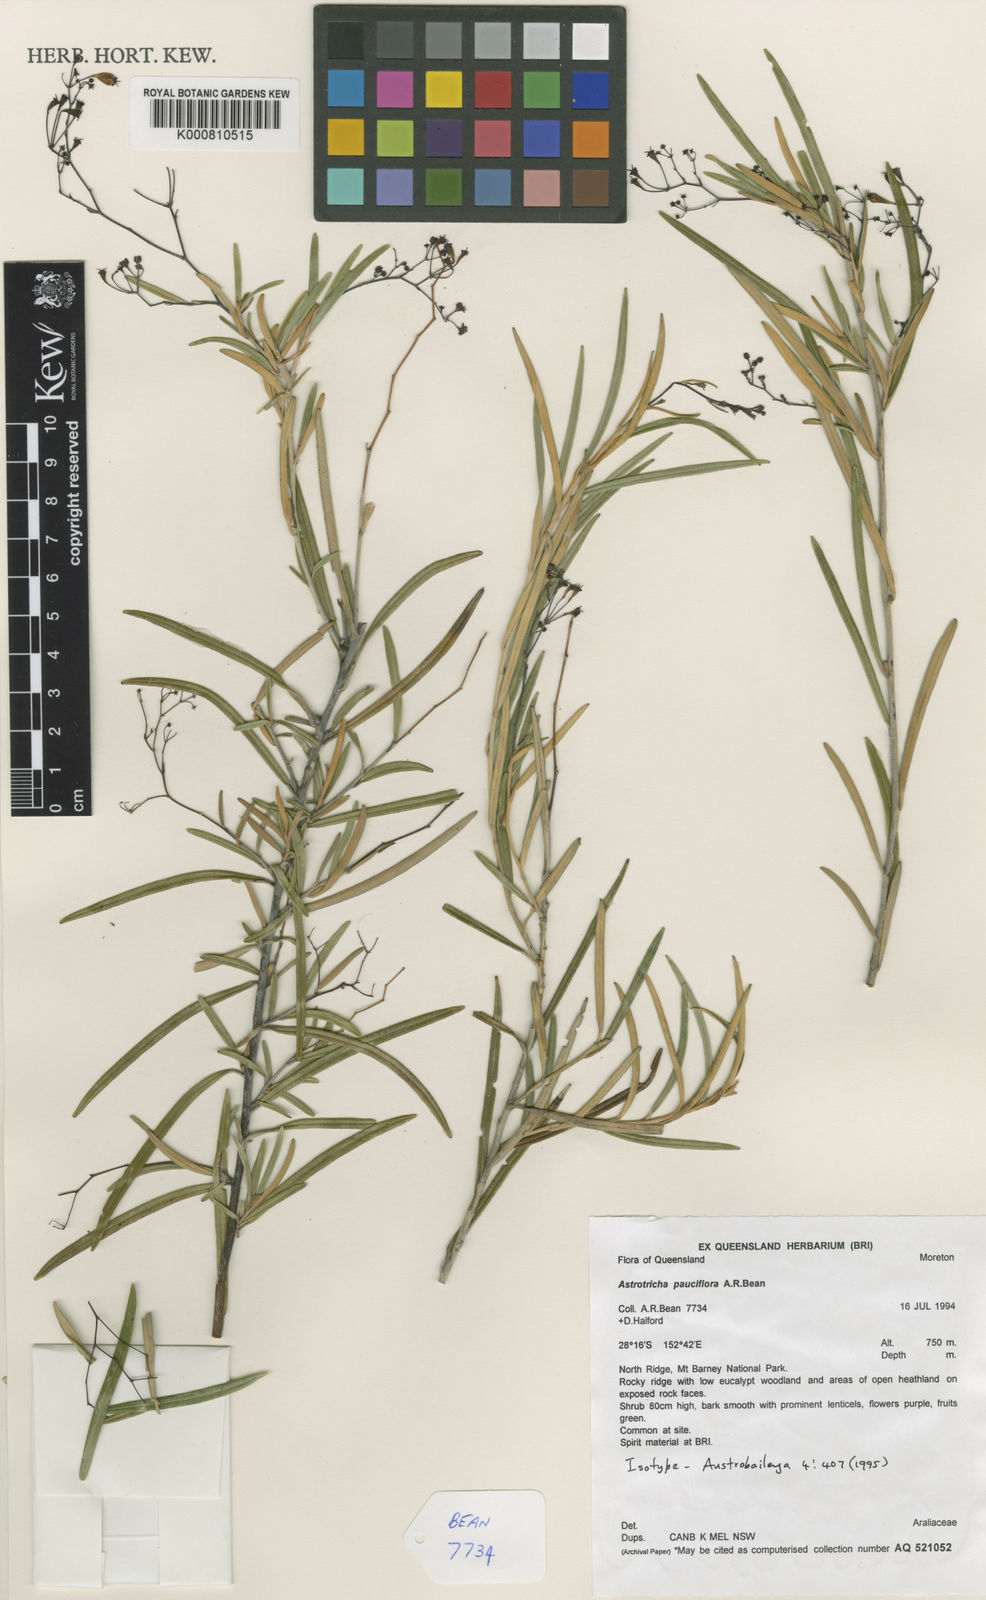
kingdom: Plantae
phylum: Tracheophyta
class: Magnoliopsida
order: Apiales
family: Araliaceae
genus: Astrotricha
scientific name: Astrotricha pauciflora
